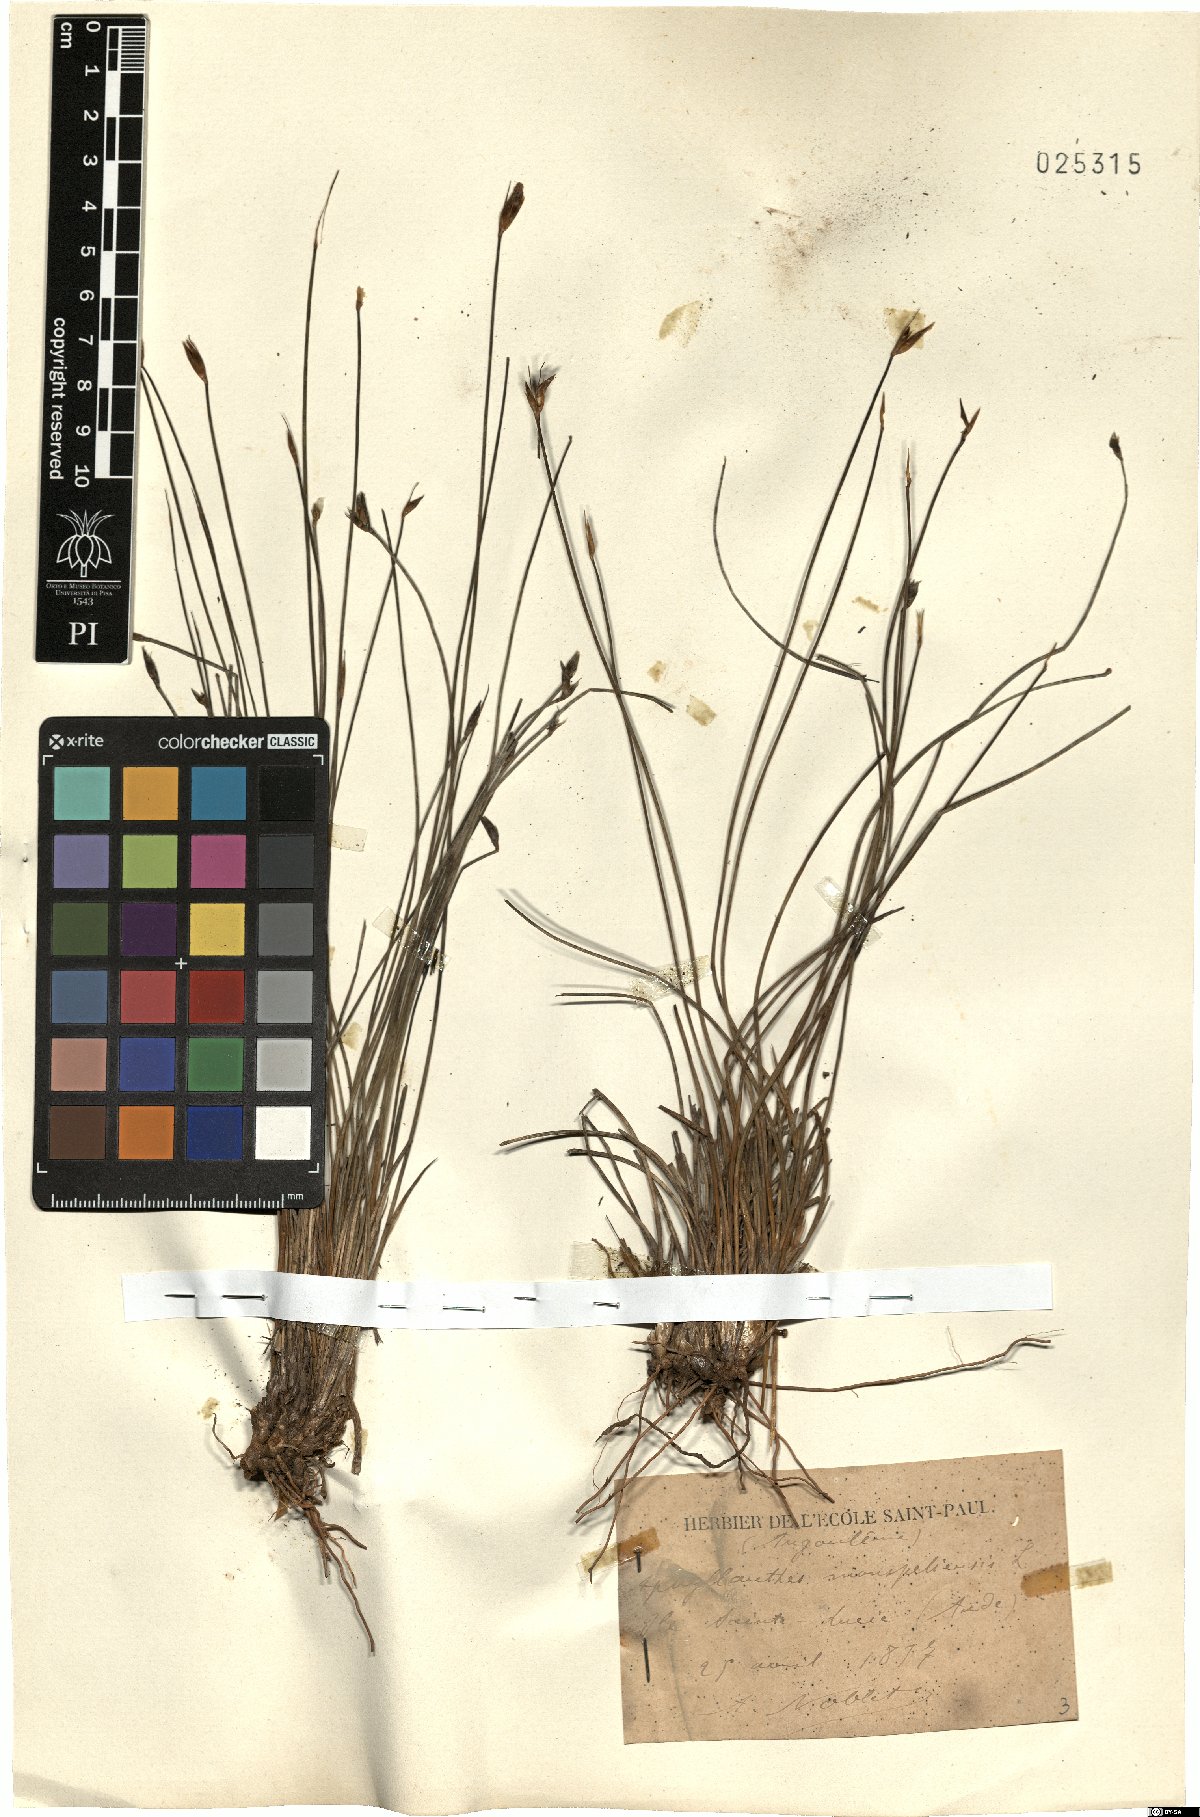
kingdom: Plantae
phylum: Tracheophyta
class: Liliopsida
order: Asparagales
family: Asparagaceae
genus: Aphyllanthes
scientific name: Aphyllanthes monspeliensis
